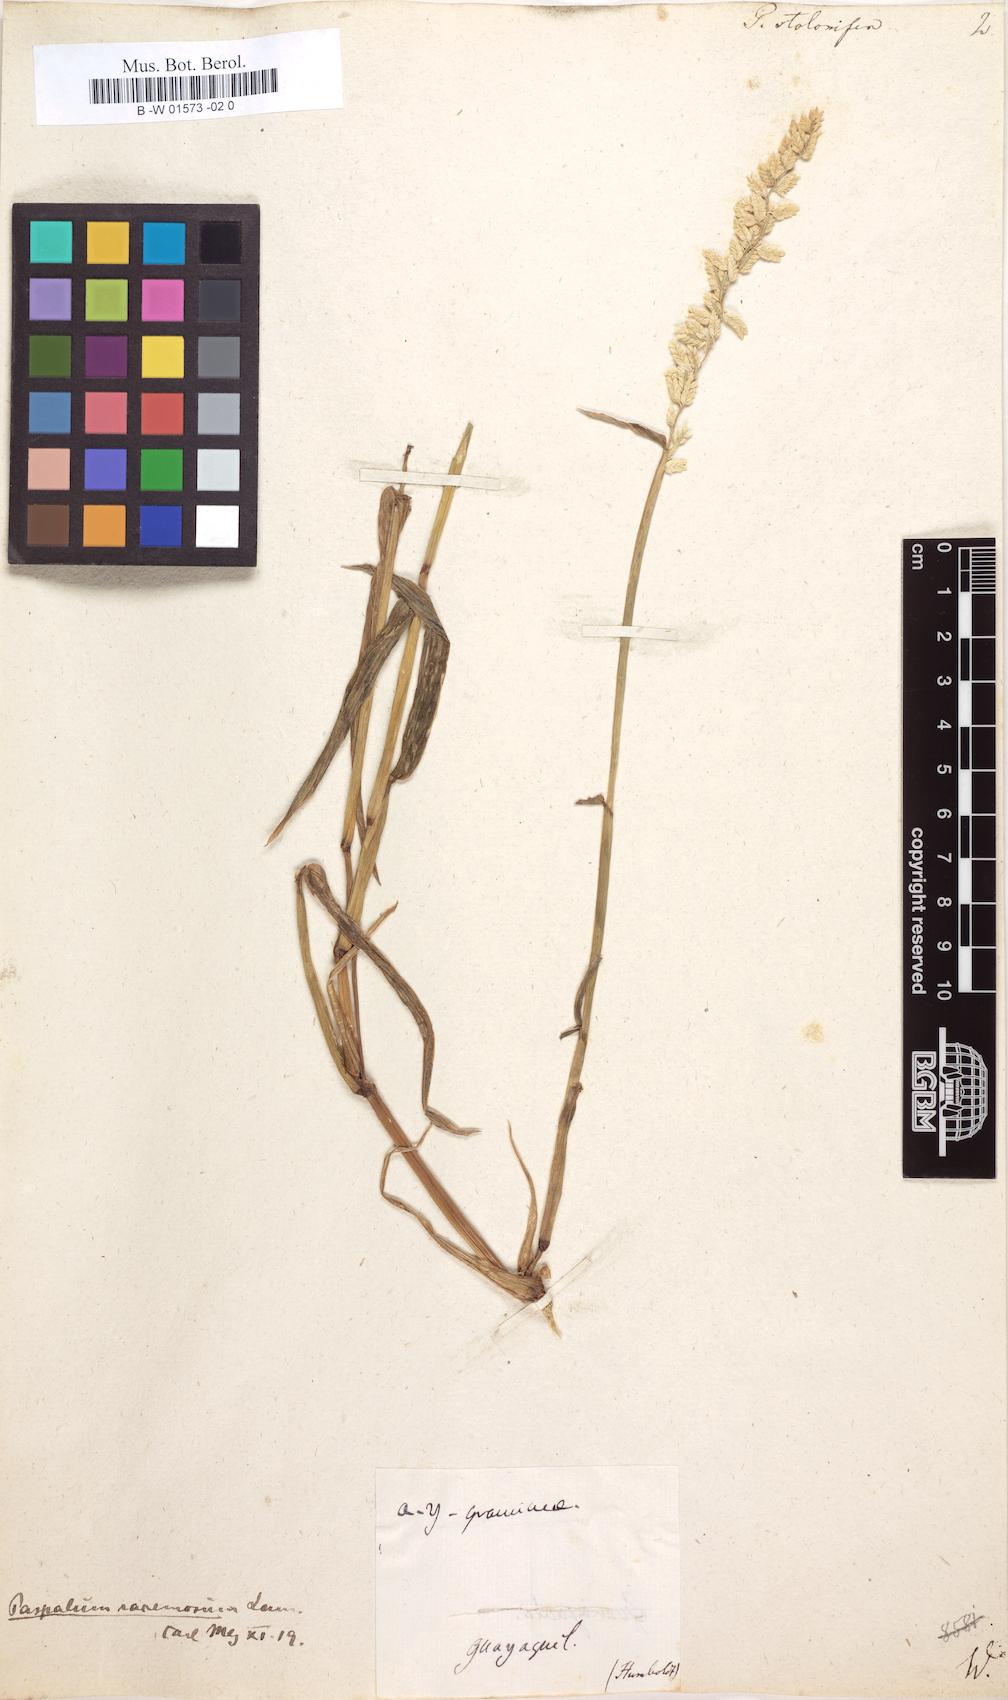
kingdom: Plantae
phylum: Tracheophyta
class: Liliopsida
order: Poales
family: Poaceae
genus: Paspalum
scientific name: Paspalum racemosum
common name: Peruvian paspalum
